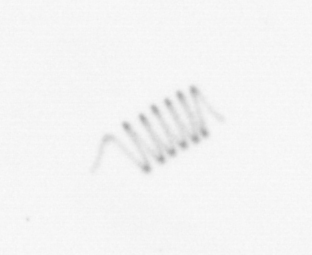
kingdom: Chromista
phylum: Ochrophyta
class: Bacillariophyceae
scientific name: Bacillariophyceae
